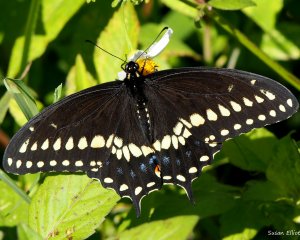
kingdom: Animalia
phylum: Arthropoda
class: Insecta
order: Lepidoptera
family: Papilionidae
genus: Papilio
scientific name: Papilio polyxenes
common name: Black Swallowtail
